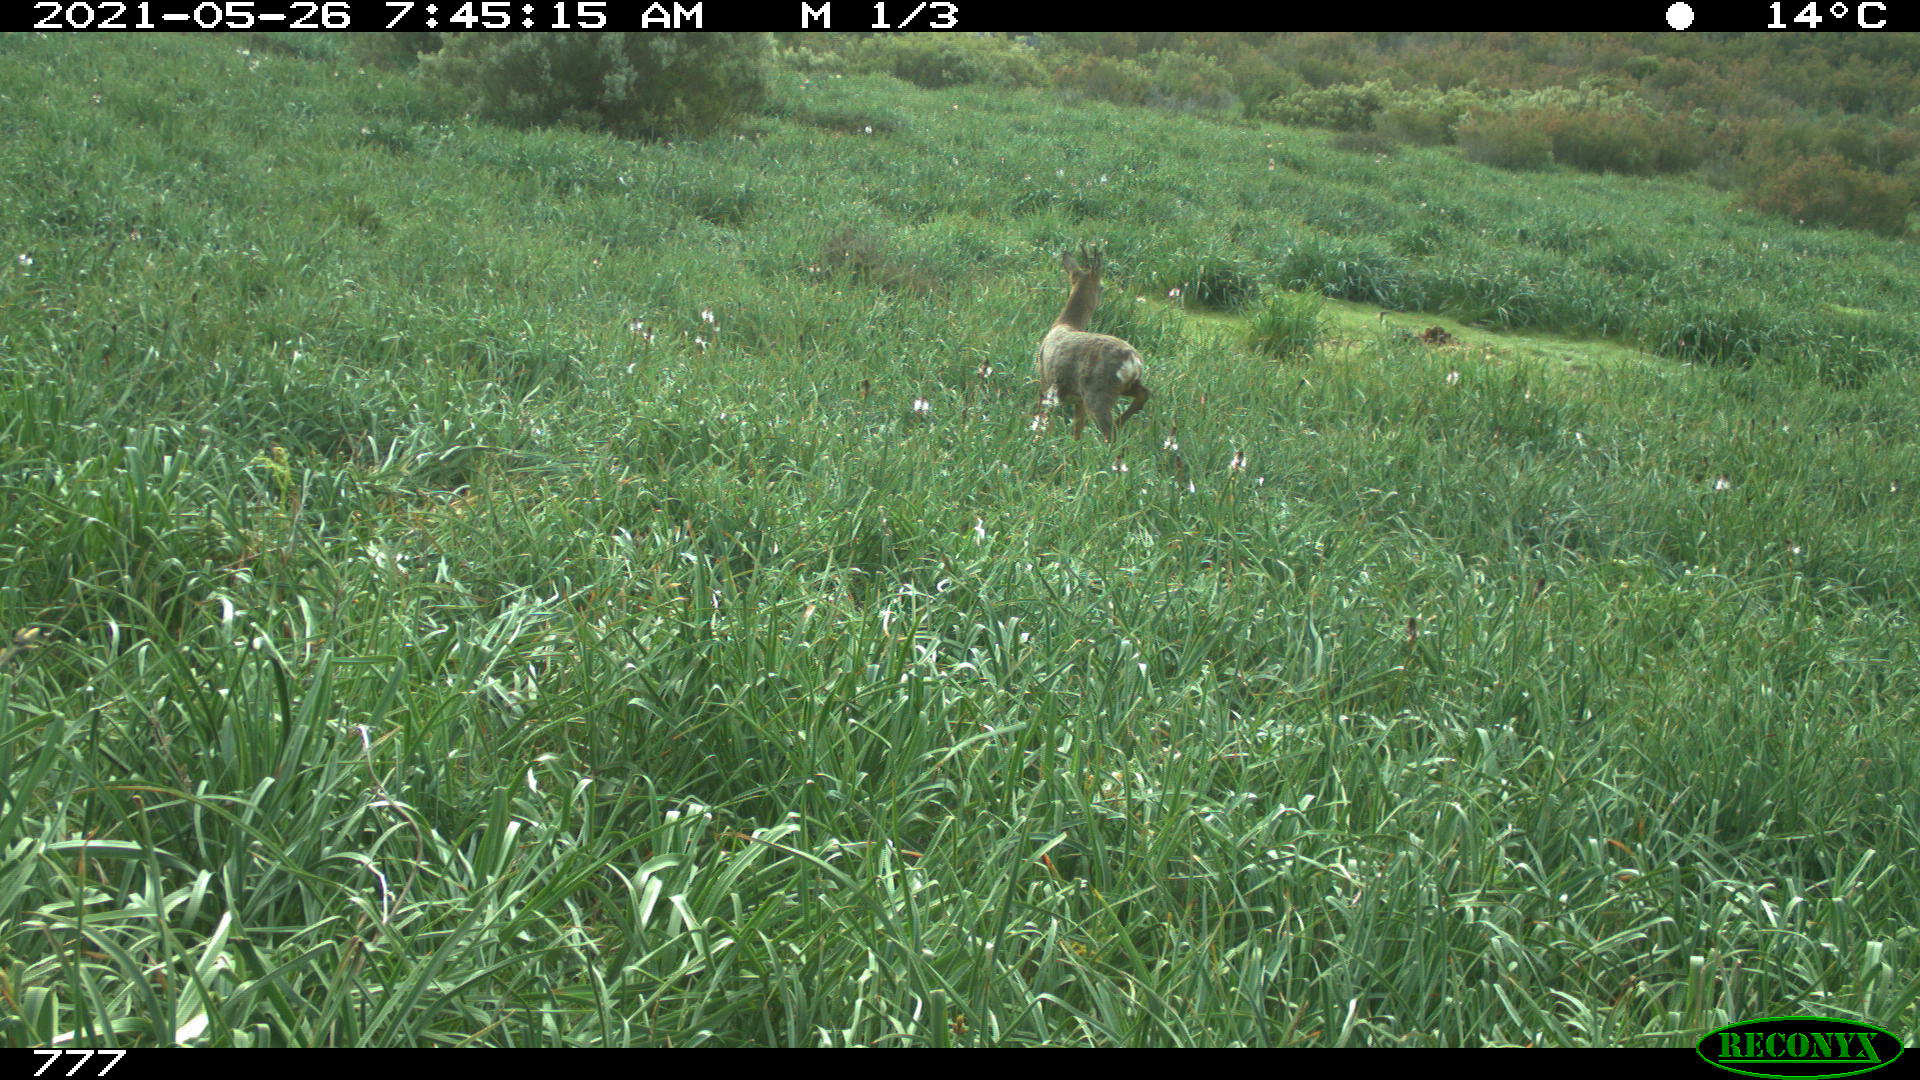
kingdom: Animalia
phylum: Chordata
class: Mammalia
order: Artiodactyla
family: Cervidae
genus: Capreolus
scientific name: Capreolus capreolus
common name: Western roe deer
